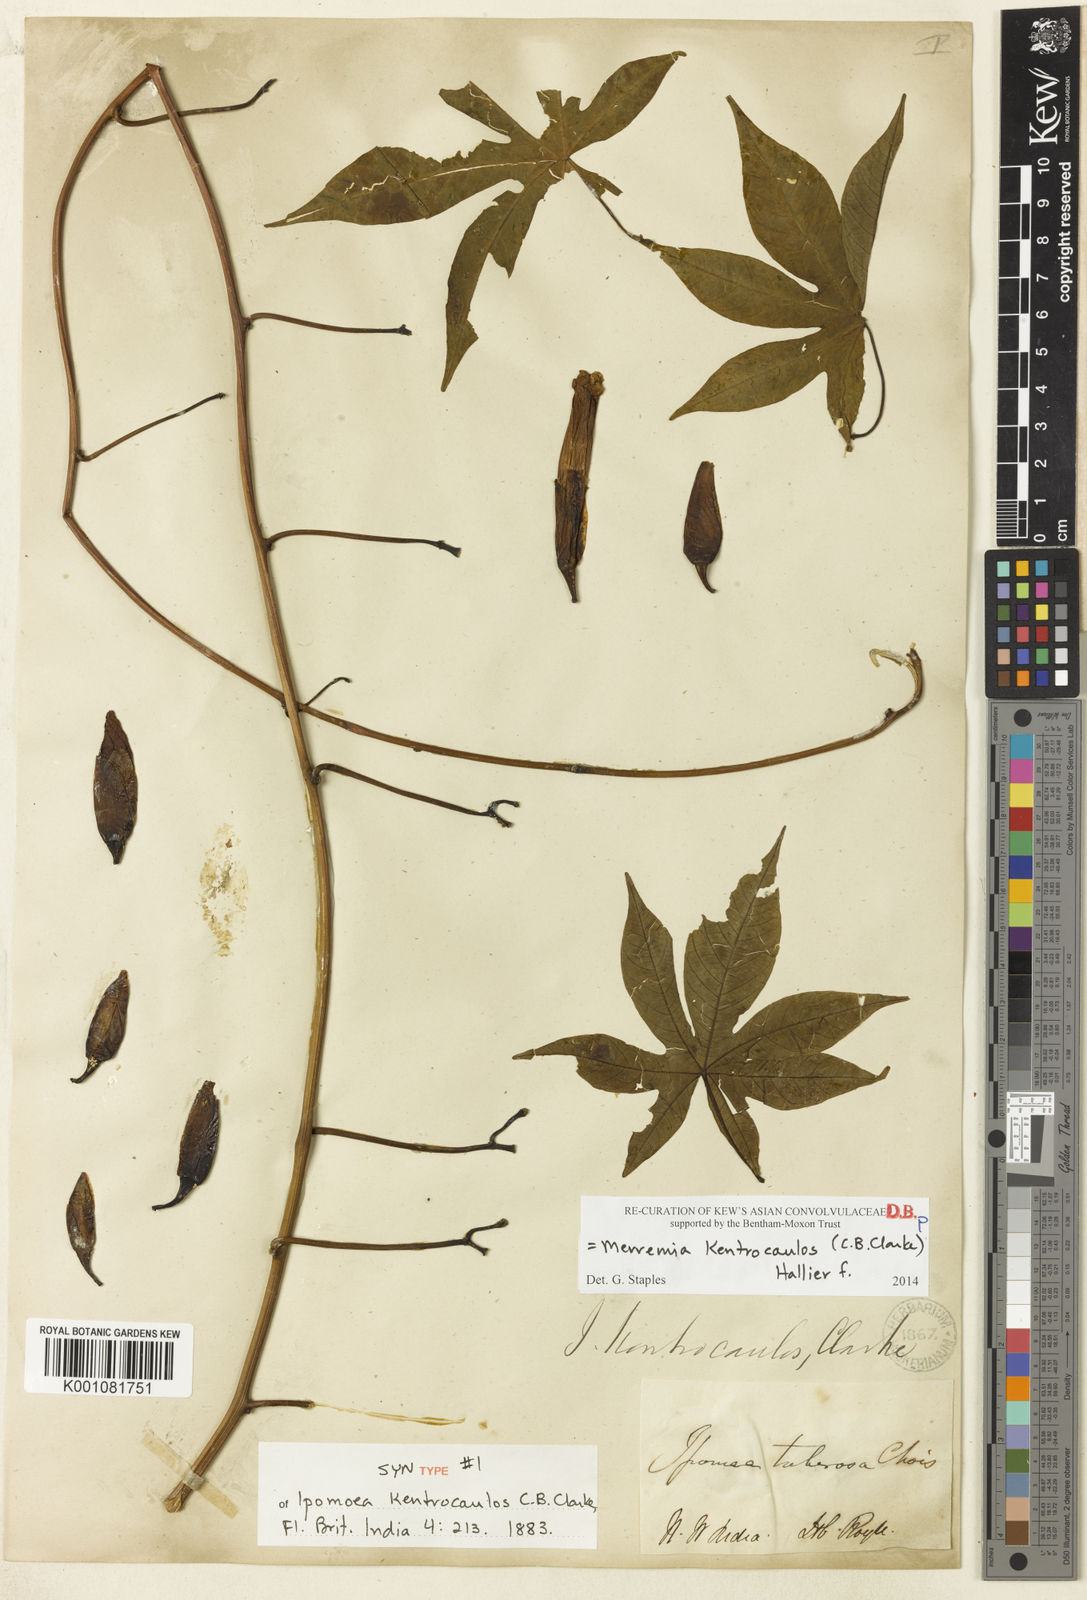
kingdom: Plantae
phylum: Tracheophyta
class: Magnoliopsida
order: Solanales
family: Convolvulaceae
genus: Distimake
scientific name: Distimake kentrocaulos
